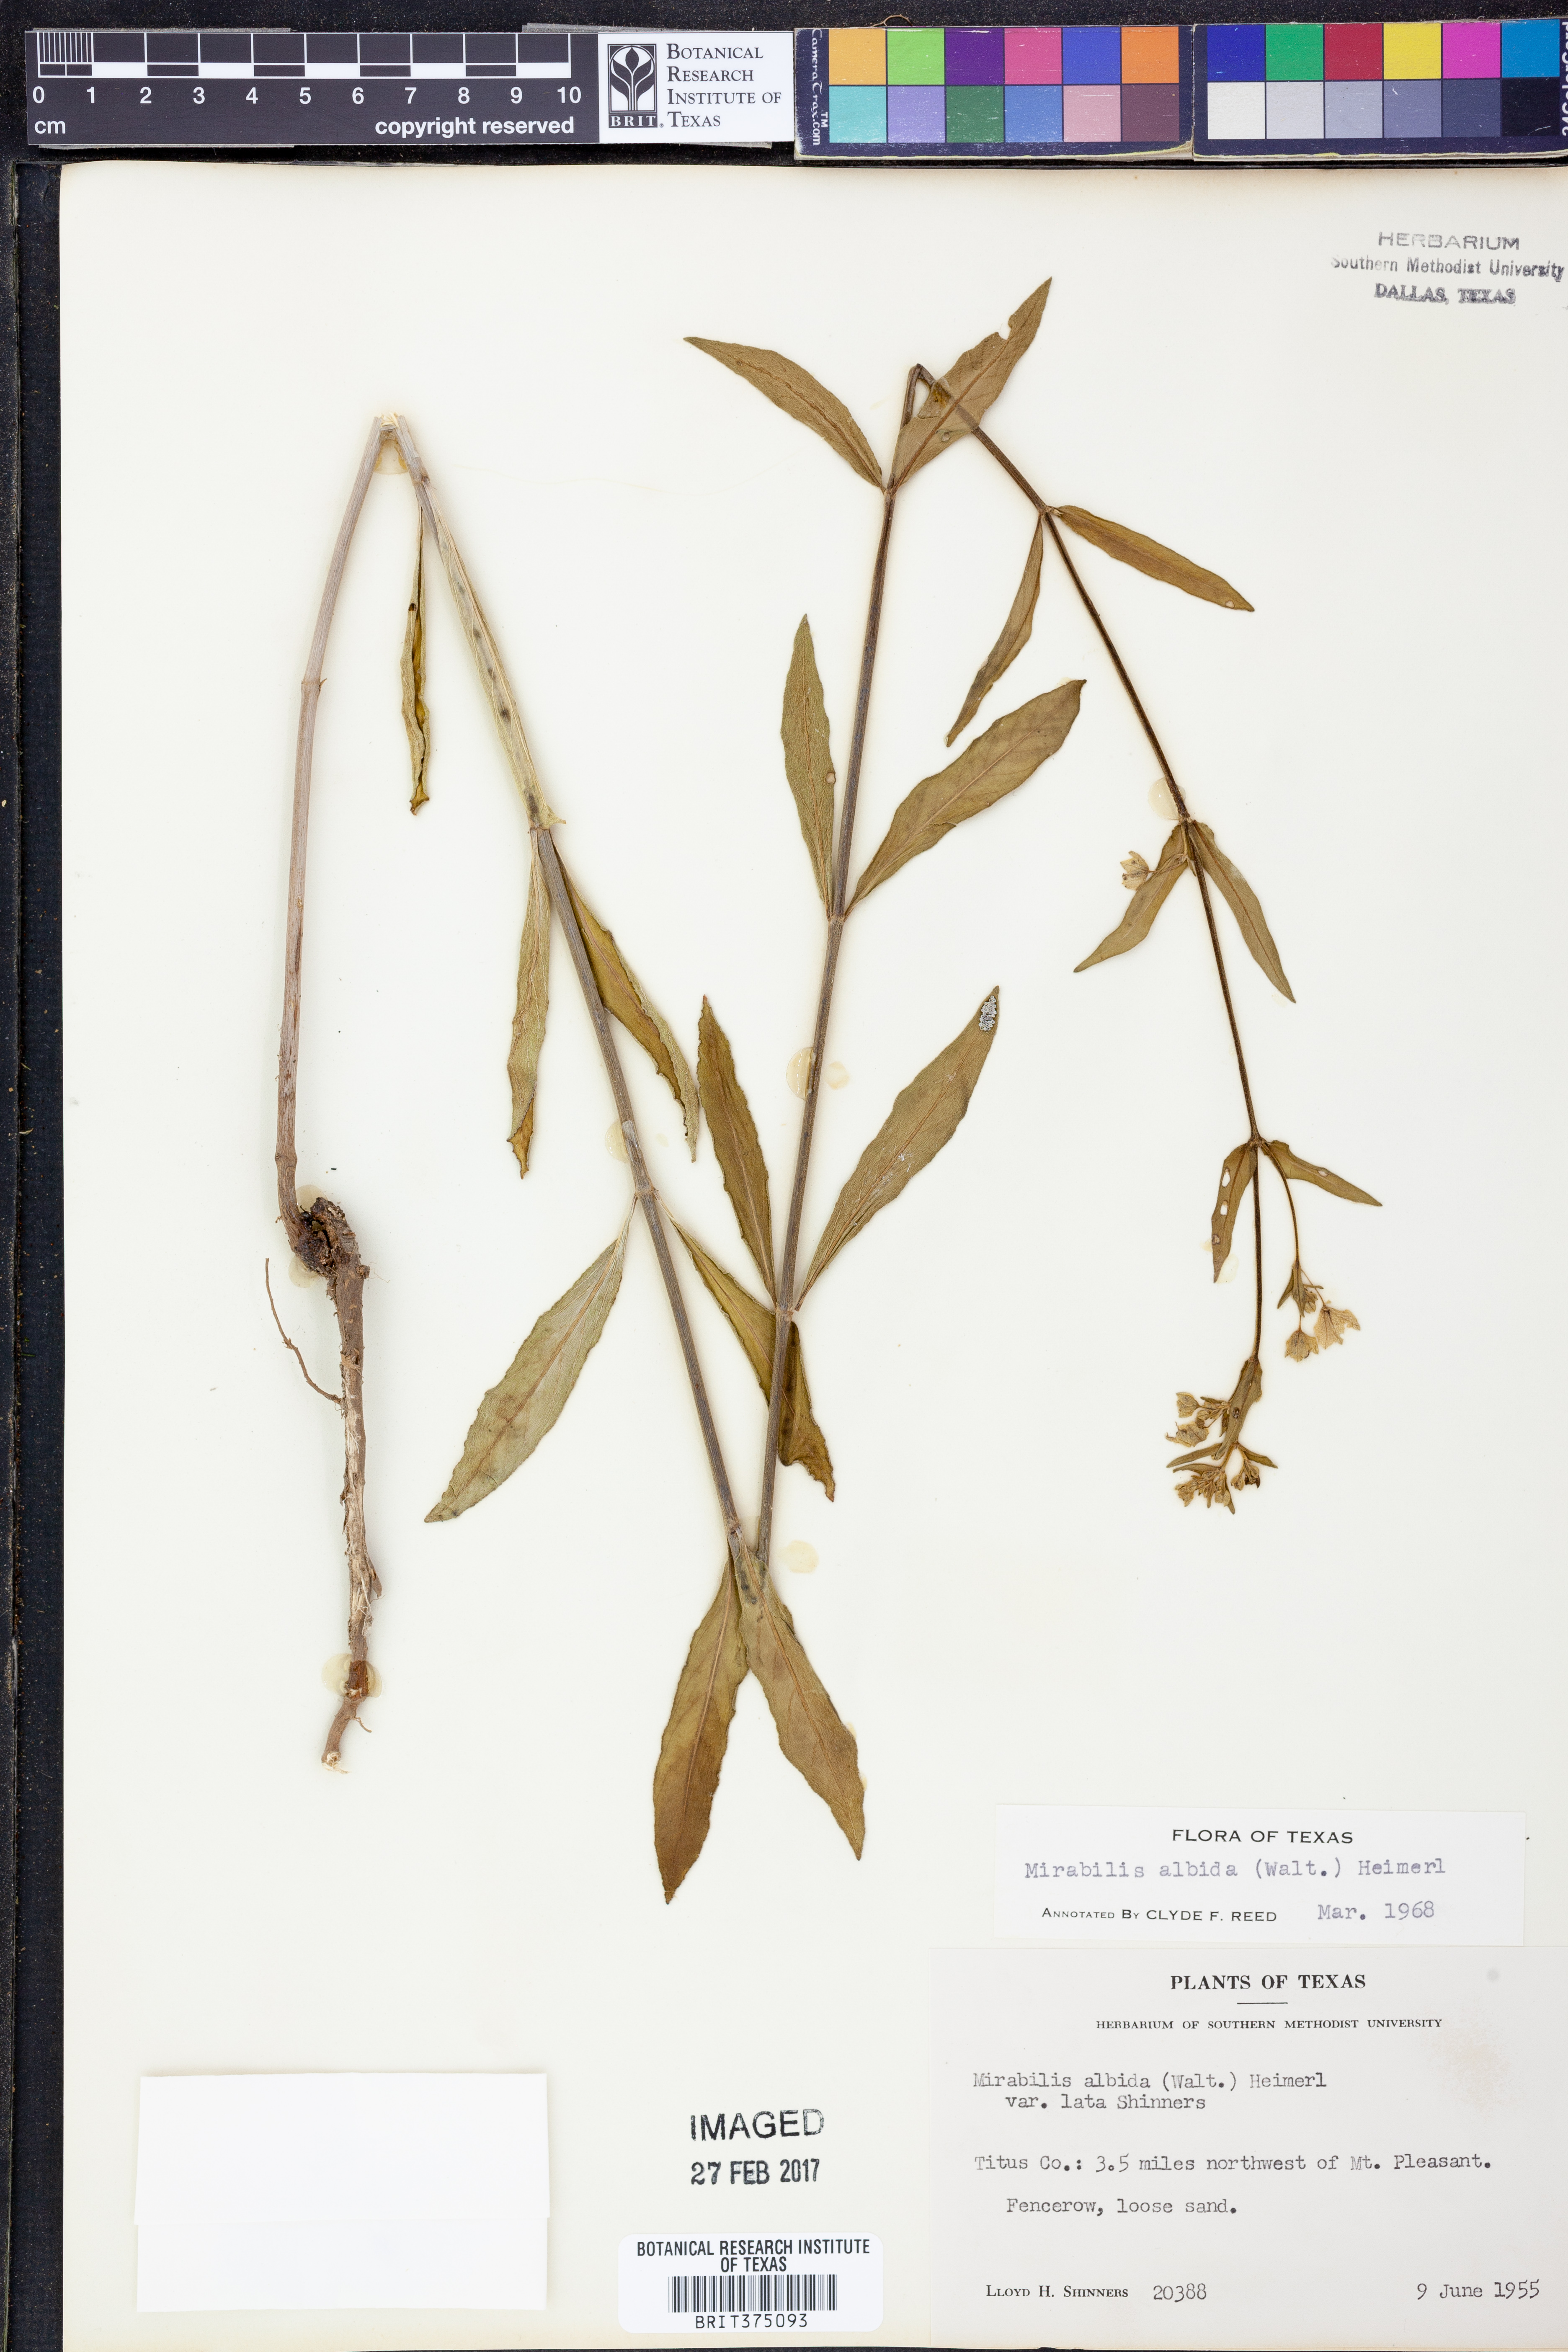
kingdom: Plantae
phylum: Tracheophyta
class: Magnoliopsida
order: Caryophyllales
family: Nyctaginaceae
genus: Mirabilis
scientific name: Mirabilis albida
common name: Hairy four-o'clock
